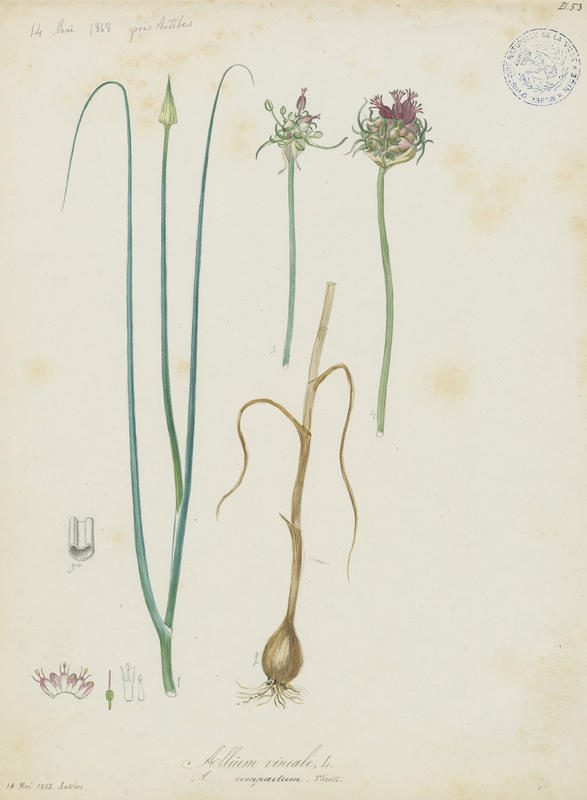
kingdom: Plantae
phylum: Tracheophyta
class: Liliopsida
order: Asparagales
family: Amaryllidaceae
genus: Allium
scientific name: Allium vineale
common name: Crow garlic
